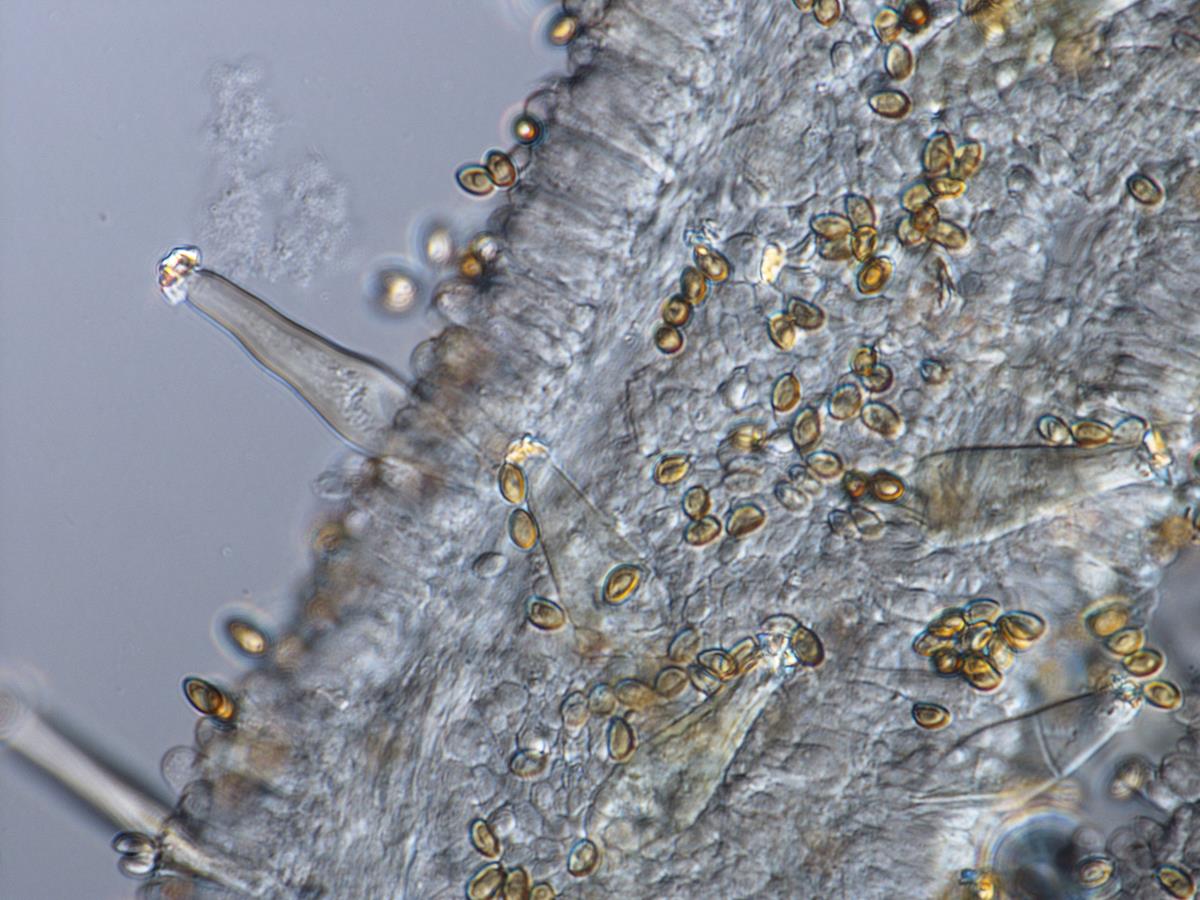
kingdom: Fungi
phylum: Basidiomycota
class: Agaricomycetes
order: Agaricales
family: Inocybaceae
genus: Inocybe
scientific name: Inocybe
